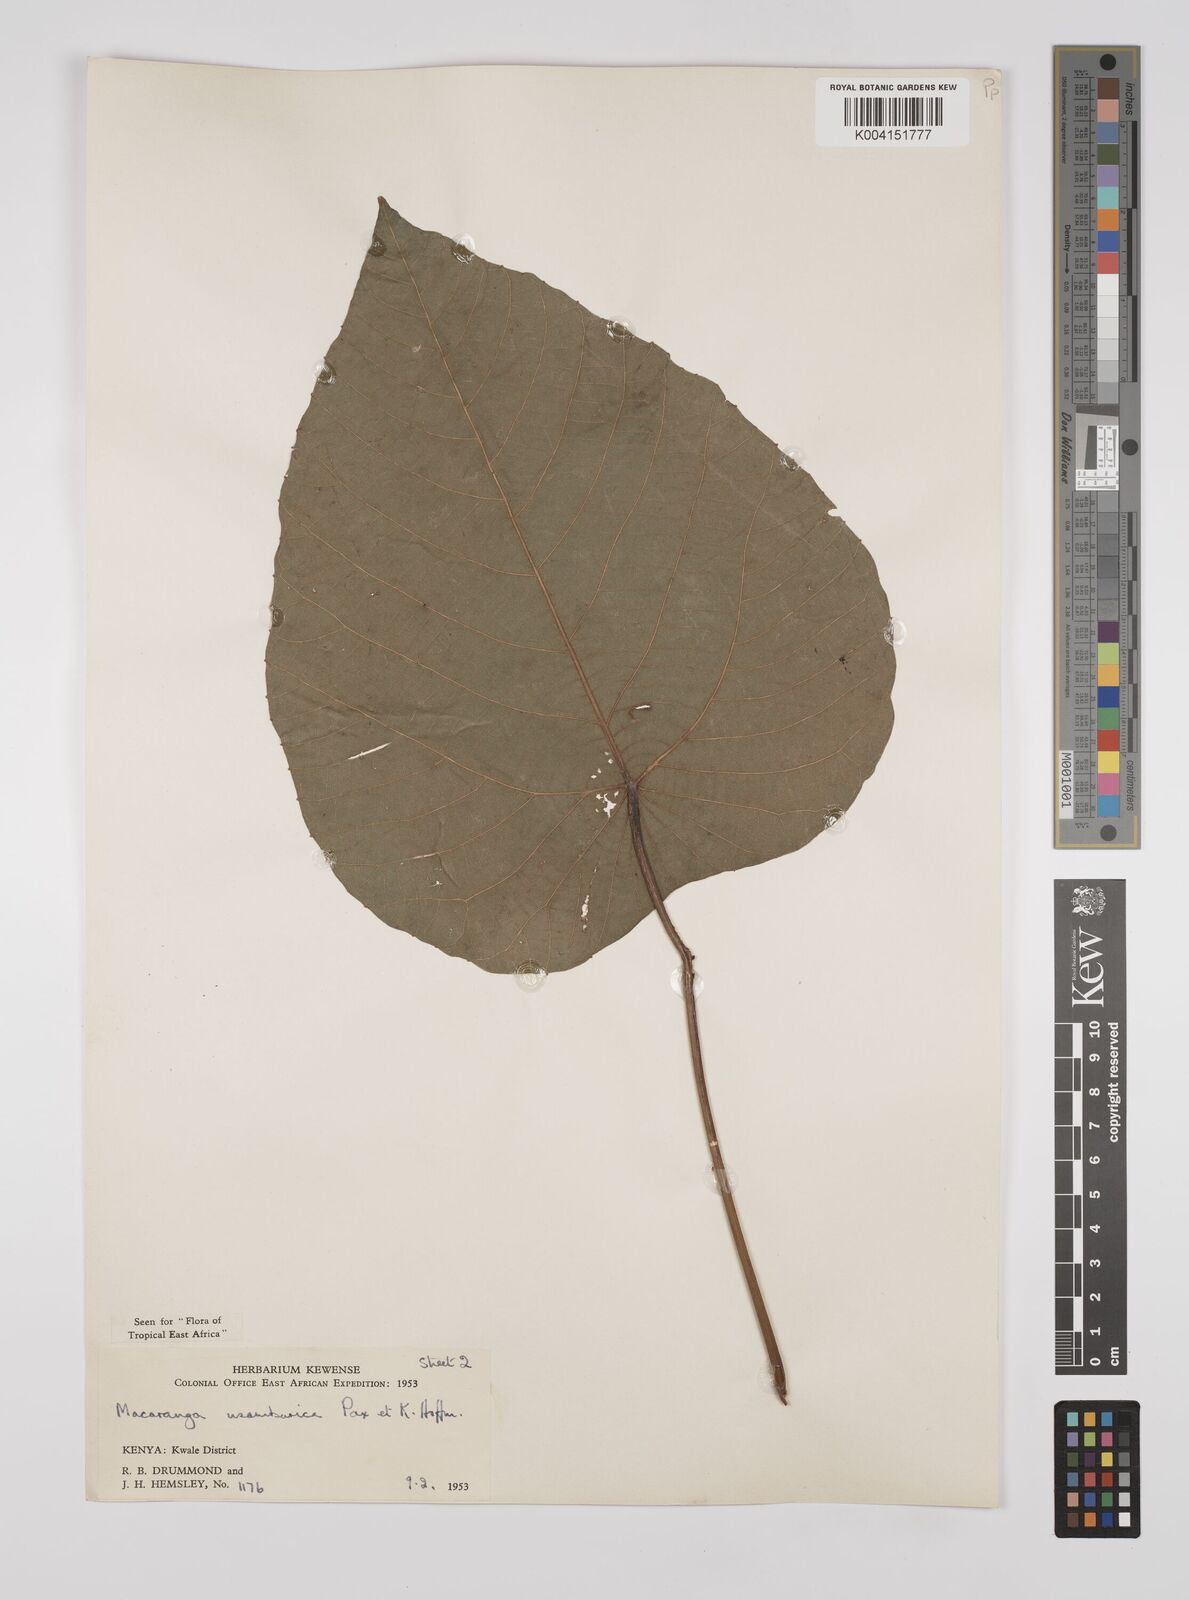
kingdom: Plantae
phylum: Tracheophyta
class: Magnoliopsida
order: Malpighiales
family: Euphorbiaceae
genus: Macaranga
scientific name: Macaranga capensis
